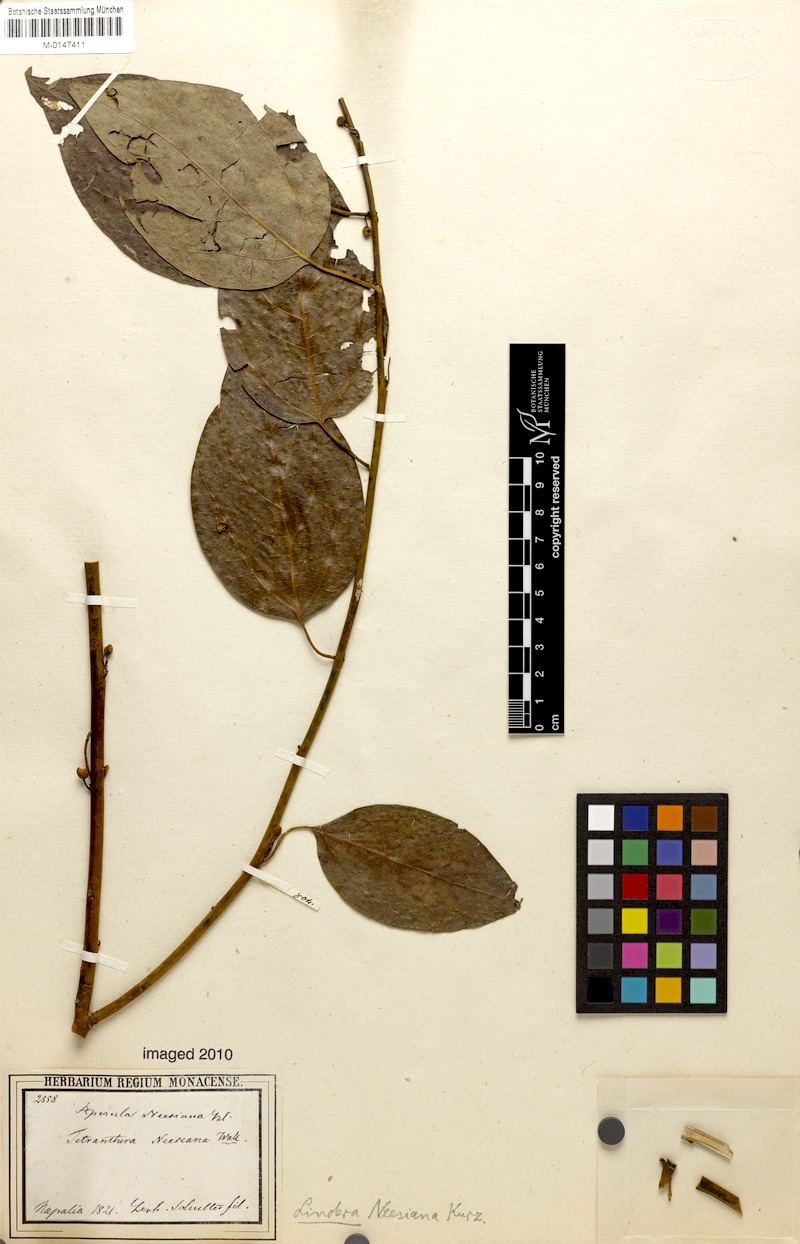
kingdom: Plantae
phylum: Tracheophyta
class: Magnoliopsida
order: Laurales
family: Lauraceae
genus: Lindera
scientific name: Lindera neesiana
